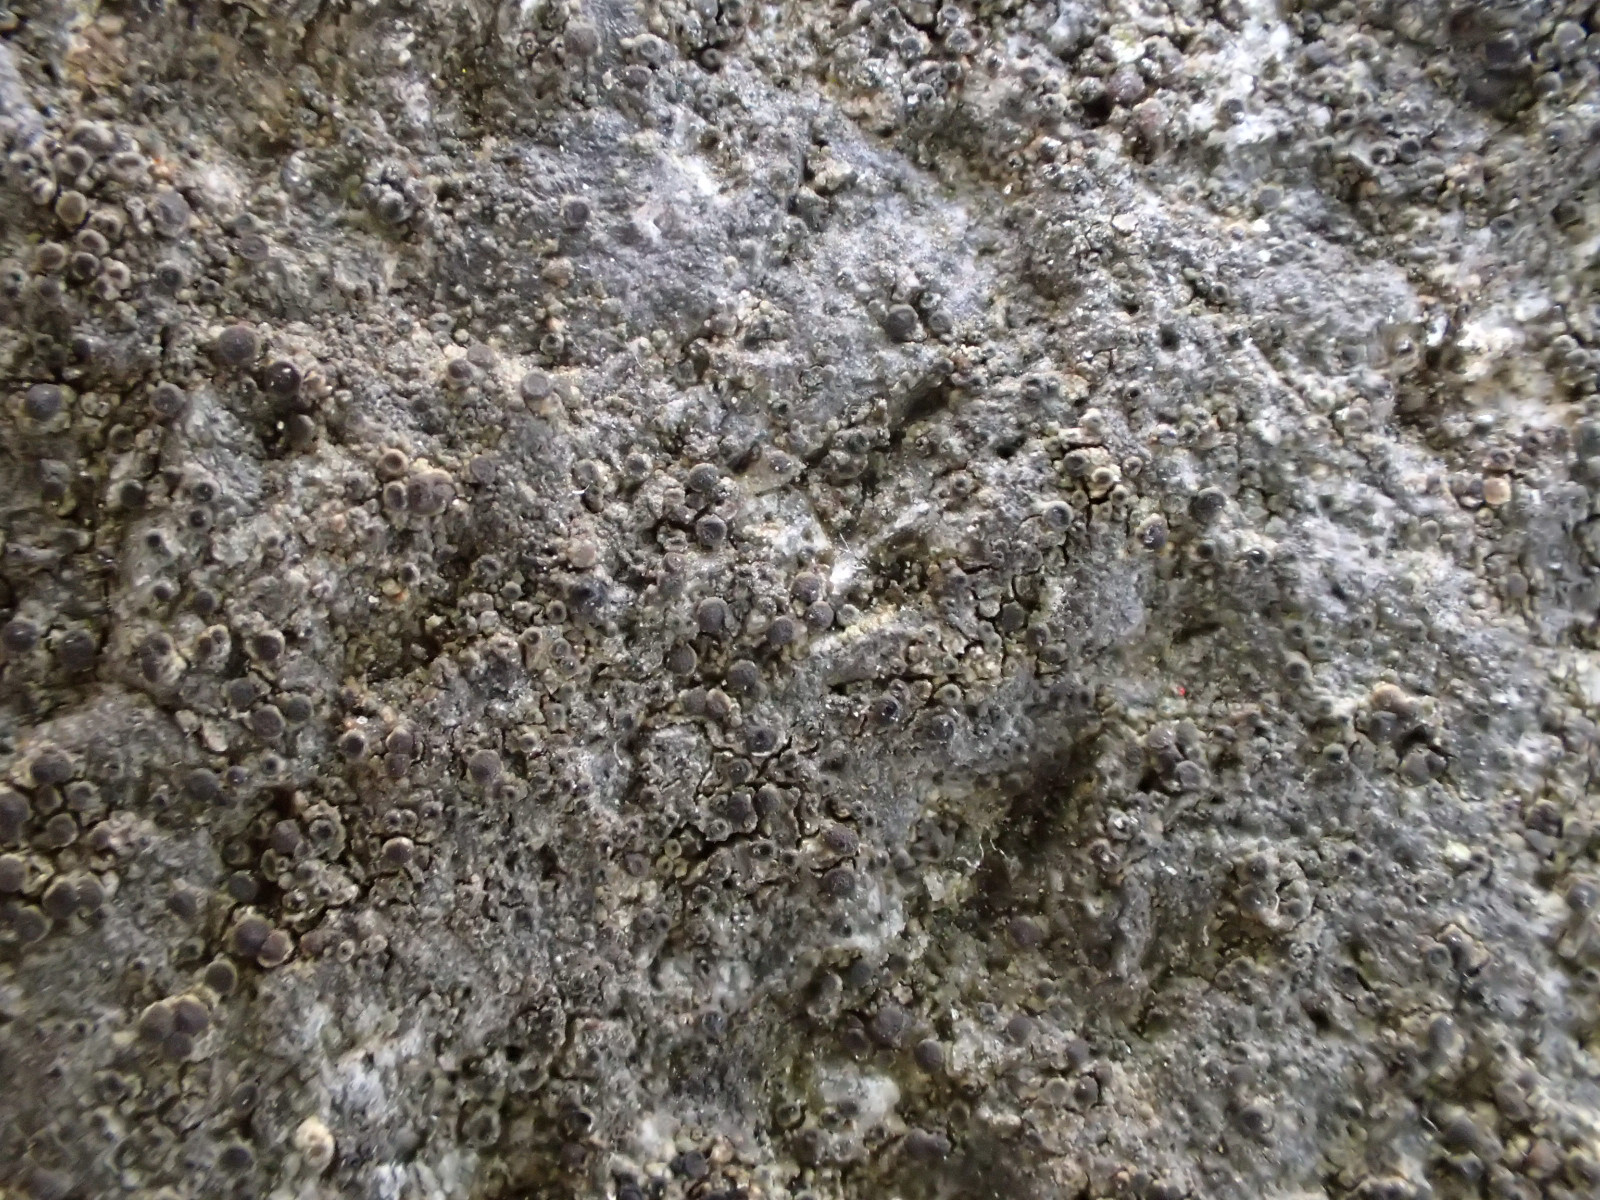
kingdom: Fungi
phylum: Ascomycota
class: Lecanoromycetes
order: Caliciales
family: Physciaceae
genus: Rinodina
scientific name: Rinodina oleae
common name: kyst-knaplav
